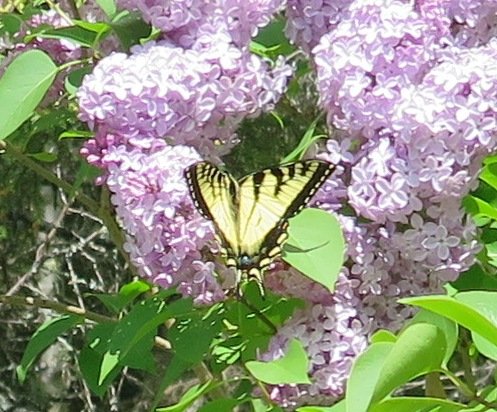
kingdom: Animalia
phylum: Arthropoda
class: Insecta
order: Lepidoptera
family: Papilionidae
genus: Pterourus
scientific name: Pterourus canadensis
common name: Canadian Tiger Swallowtail
